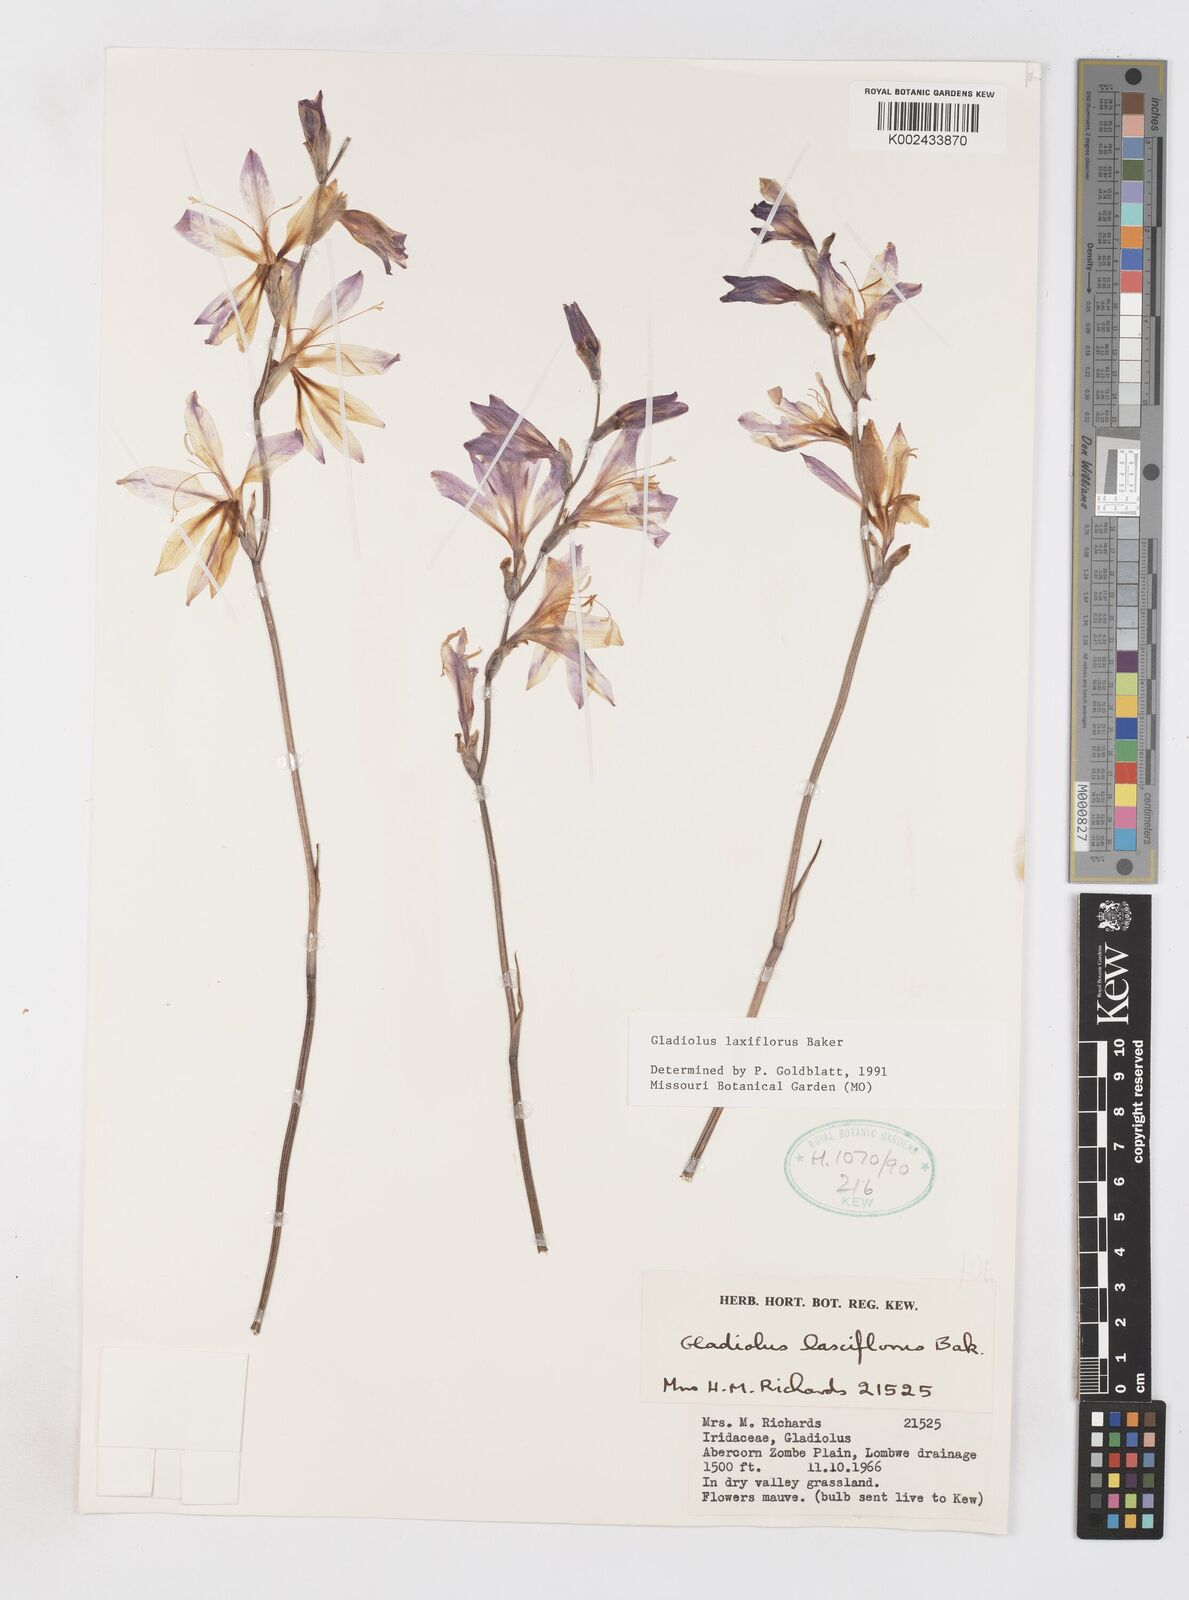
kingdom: Plantae
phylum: Tracheophyta
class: Liliopsida
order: Asparagales
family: Iridaceae
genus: Gladiolus
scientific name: Gladiolus laxiflorus
